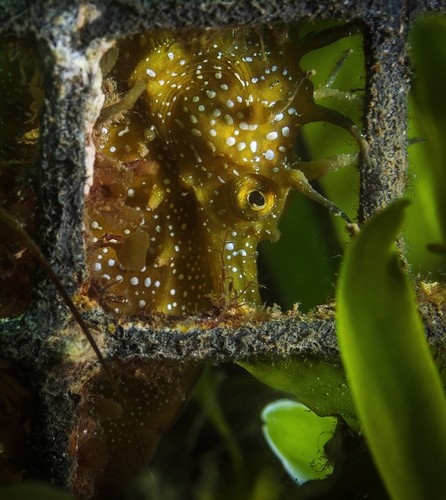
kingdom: Animalia
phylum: Chordata
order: Syngnathiformes
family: Syngnathidae
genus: Hippocampus
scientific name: Hippocampus guttulatus
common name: Long-snouted seahorse
